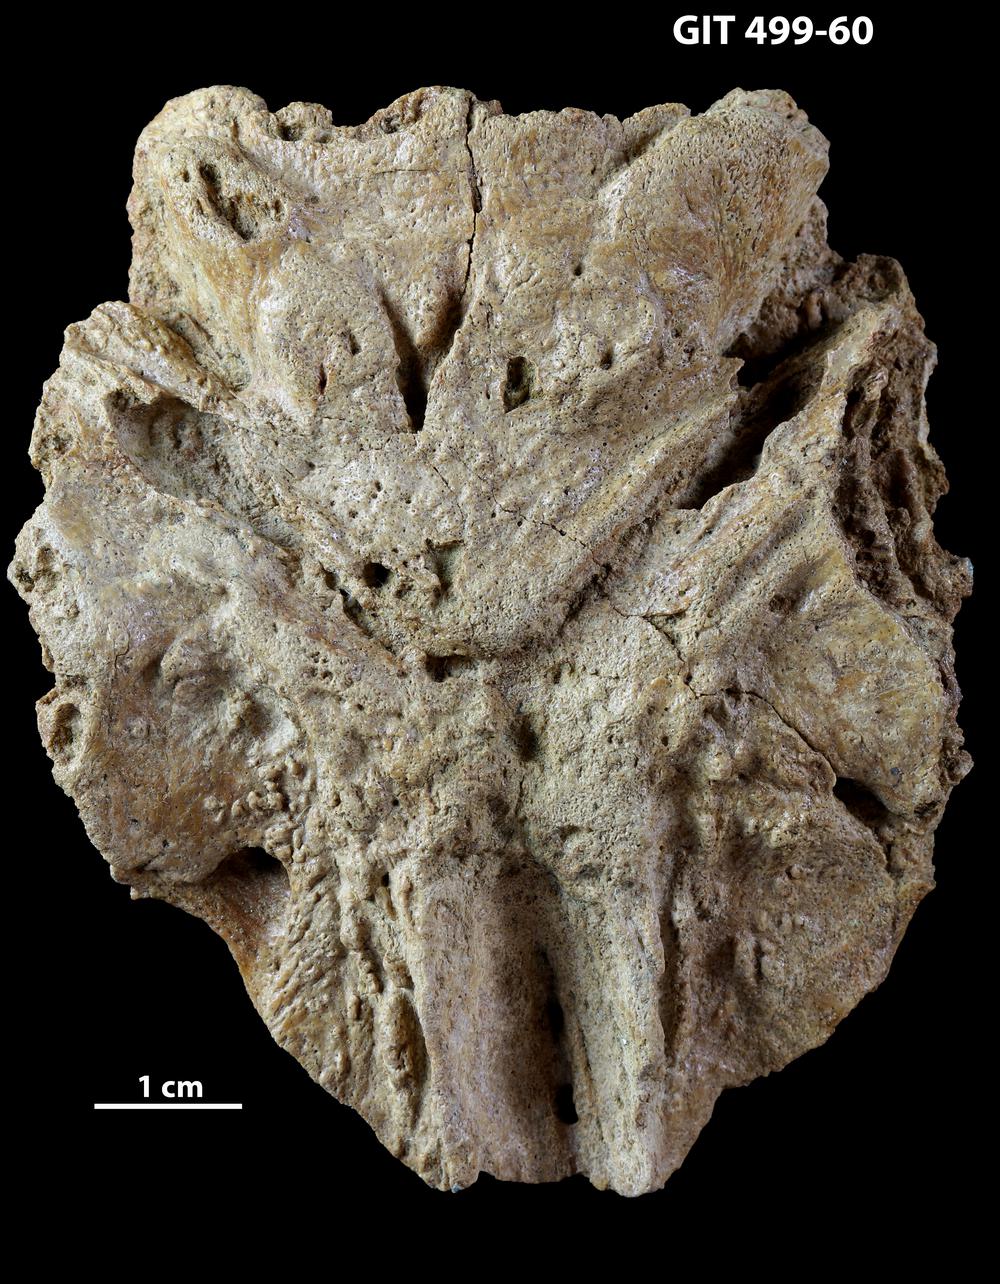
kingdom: Animalia
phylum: Chordata
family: Holoptychiidae
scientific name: Holoptychiidae
